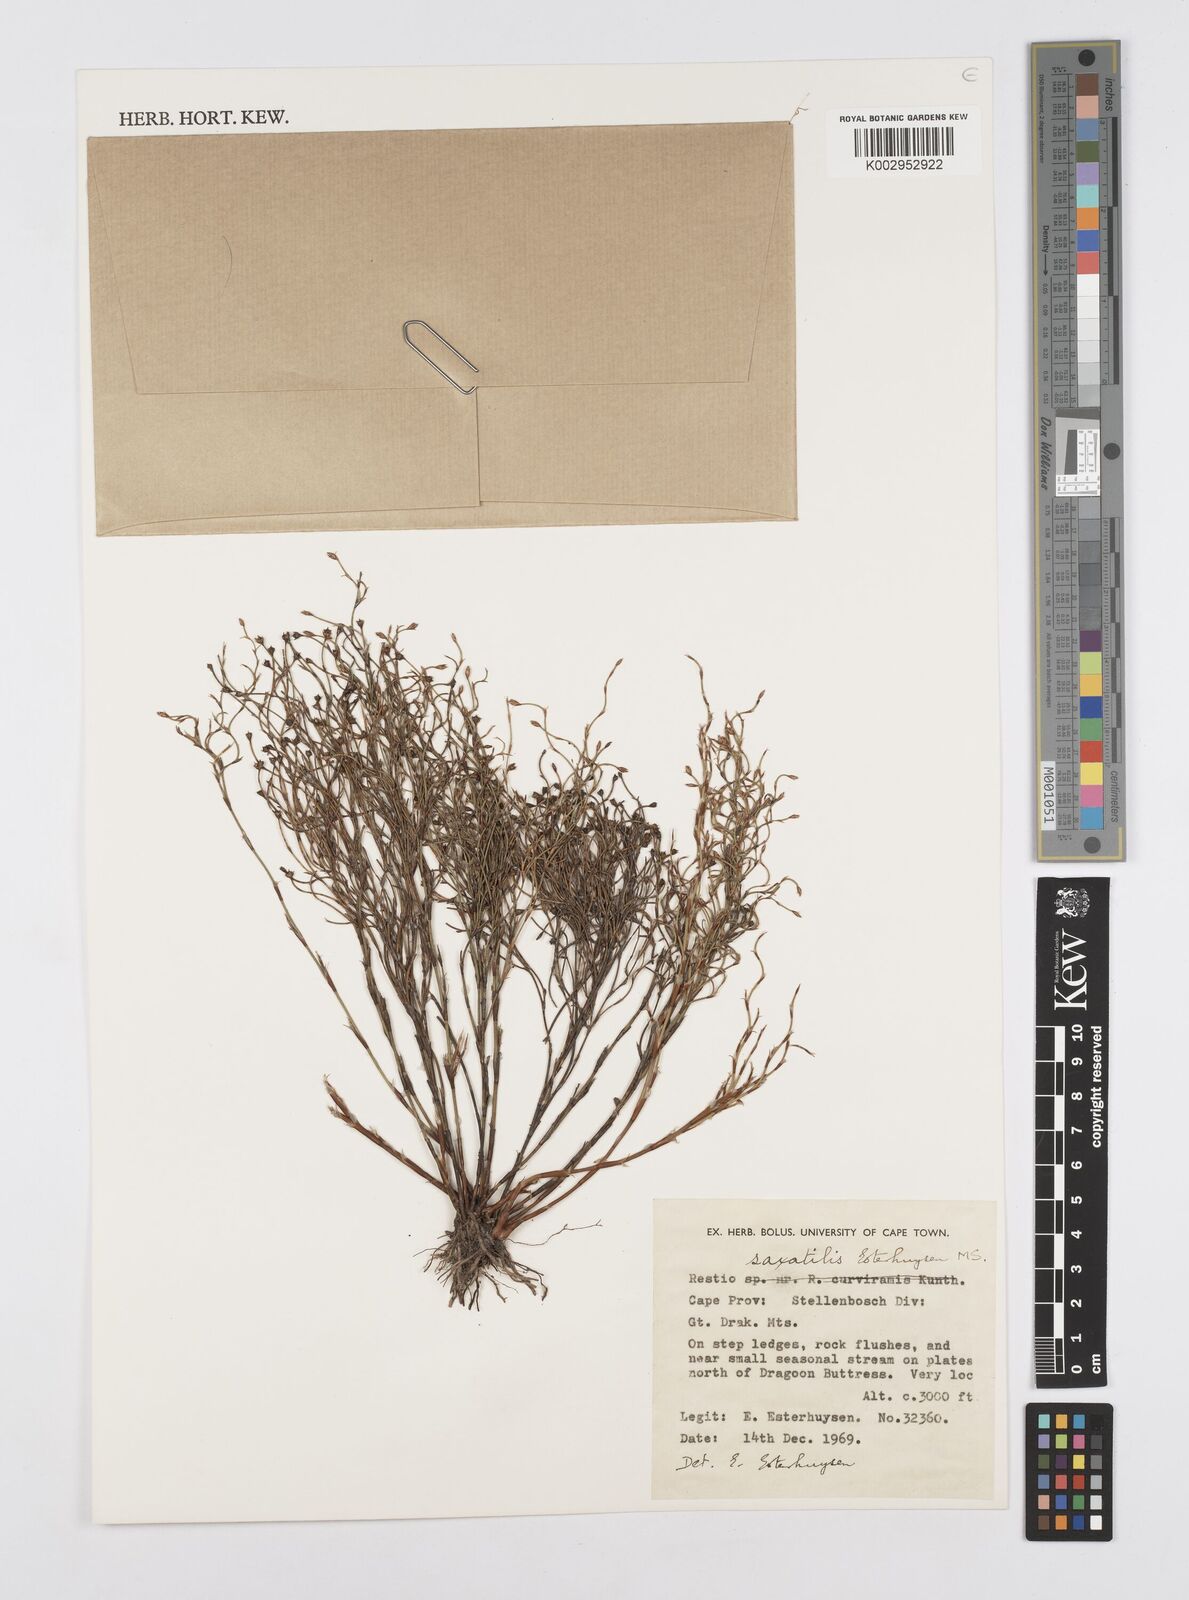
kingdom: Plantae
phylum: Tracheophyta
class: Liliopsida
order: Poales
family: Restionaceae
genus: Restio
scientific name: Restio saxatilis
